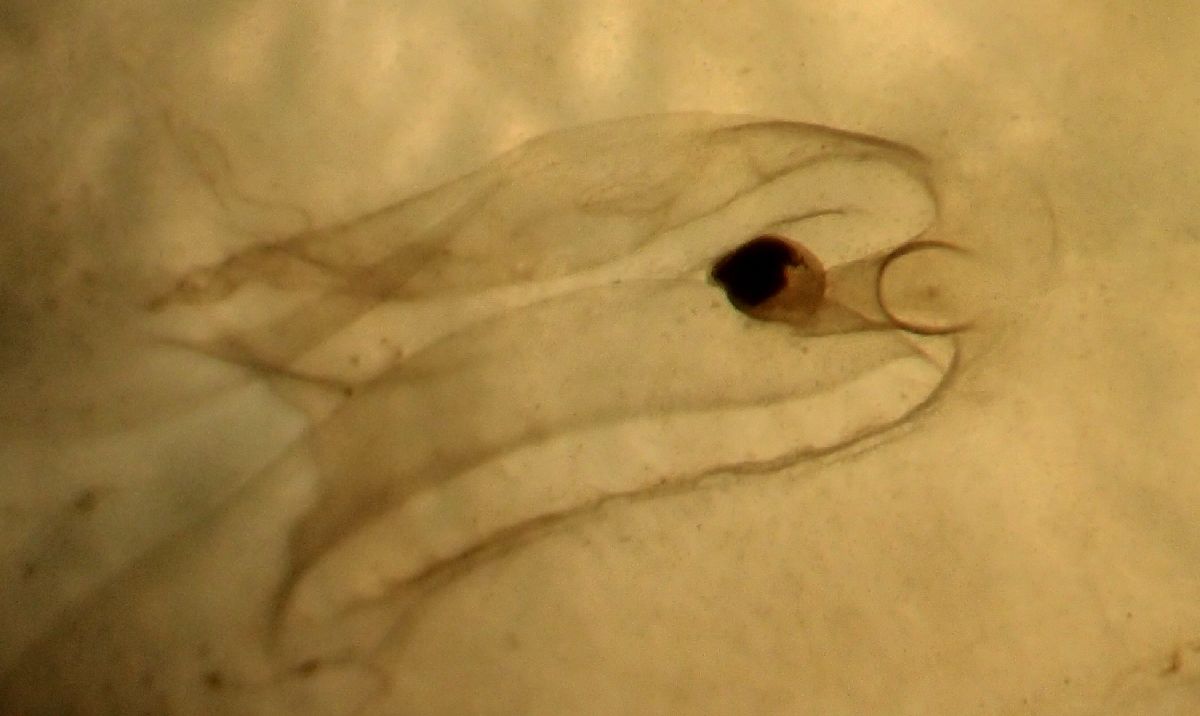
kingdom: Animalia
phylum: Cnidaria
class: Scyphozoa
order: Semaeostomeae
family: Cyaneidae
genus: Cyanea
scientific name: Cyanea tzetlinii
